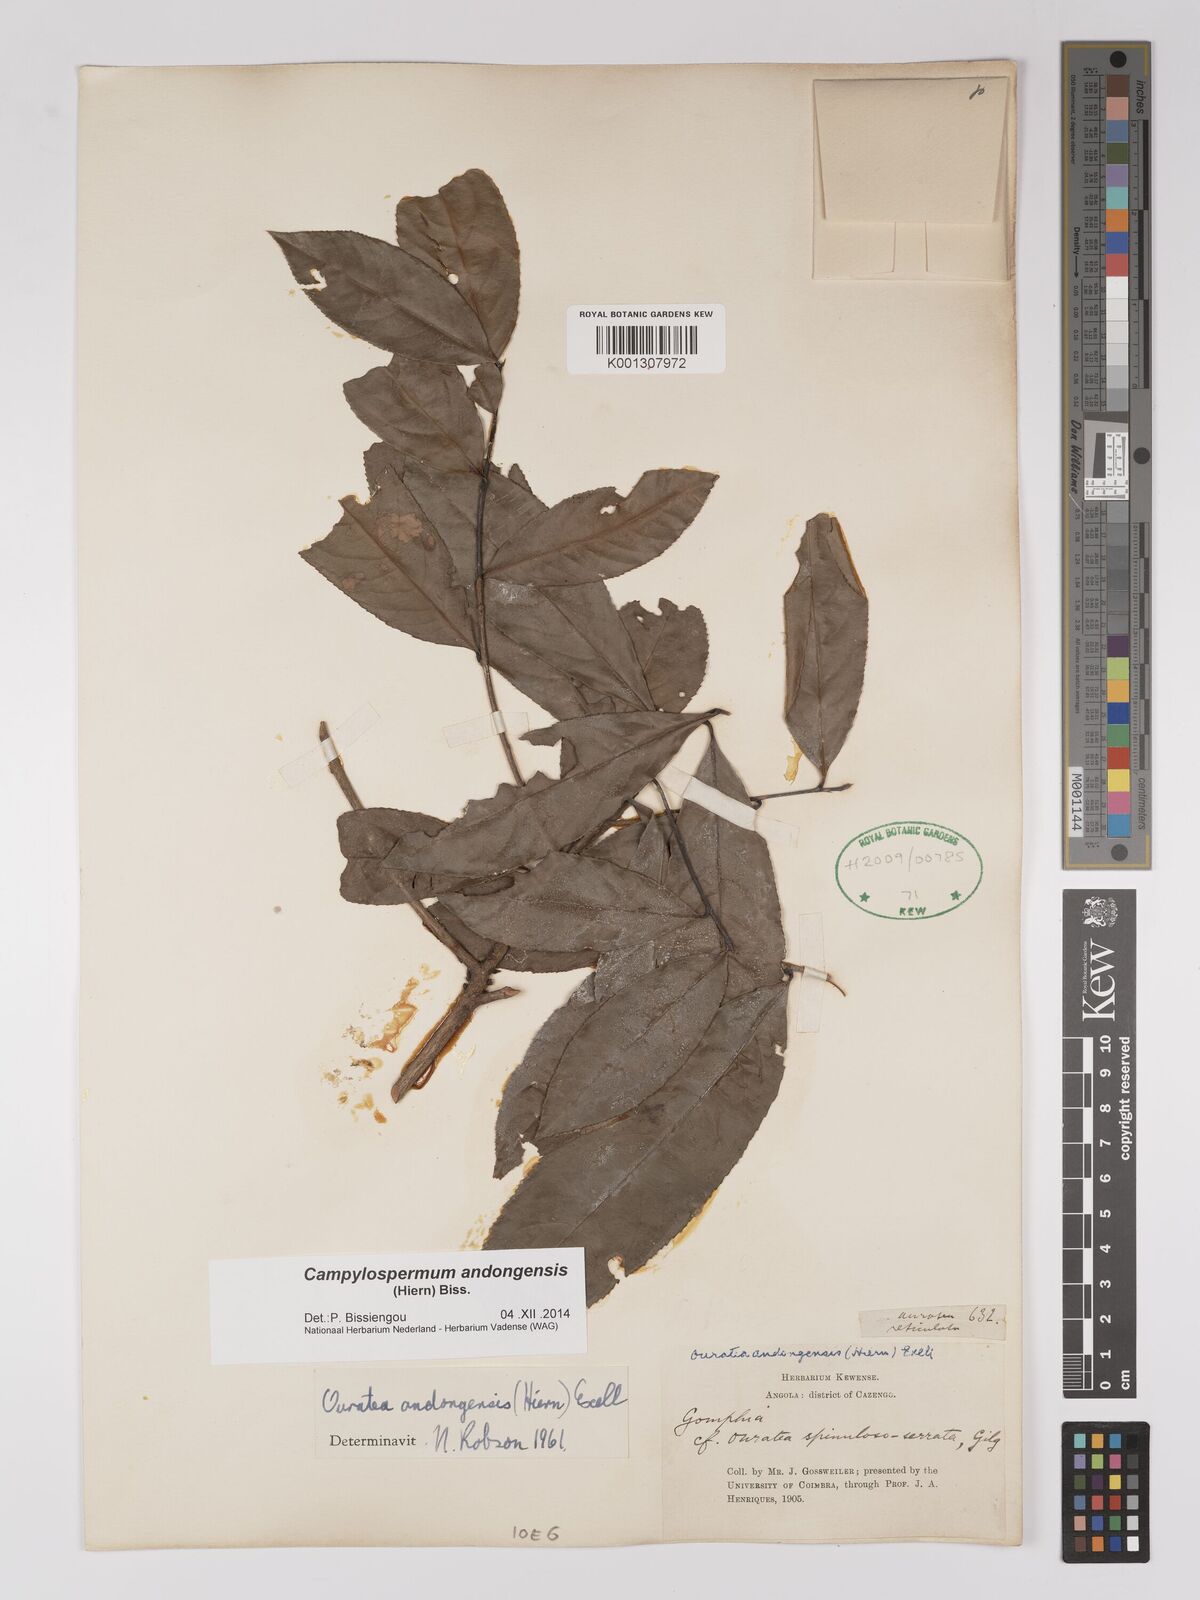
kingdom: Plantae
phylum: Tracheophyta
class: Magnoliopsida
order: Malpighiales
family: Ochnaceae
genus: Campylospermum
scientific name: Campylospermum
